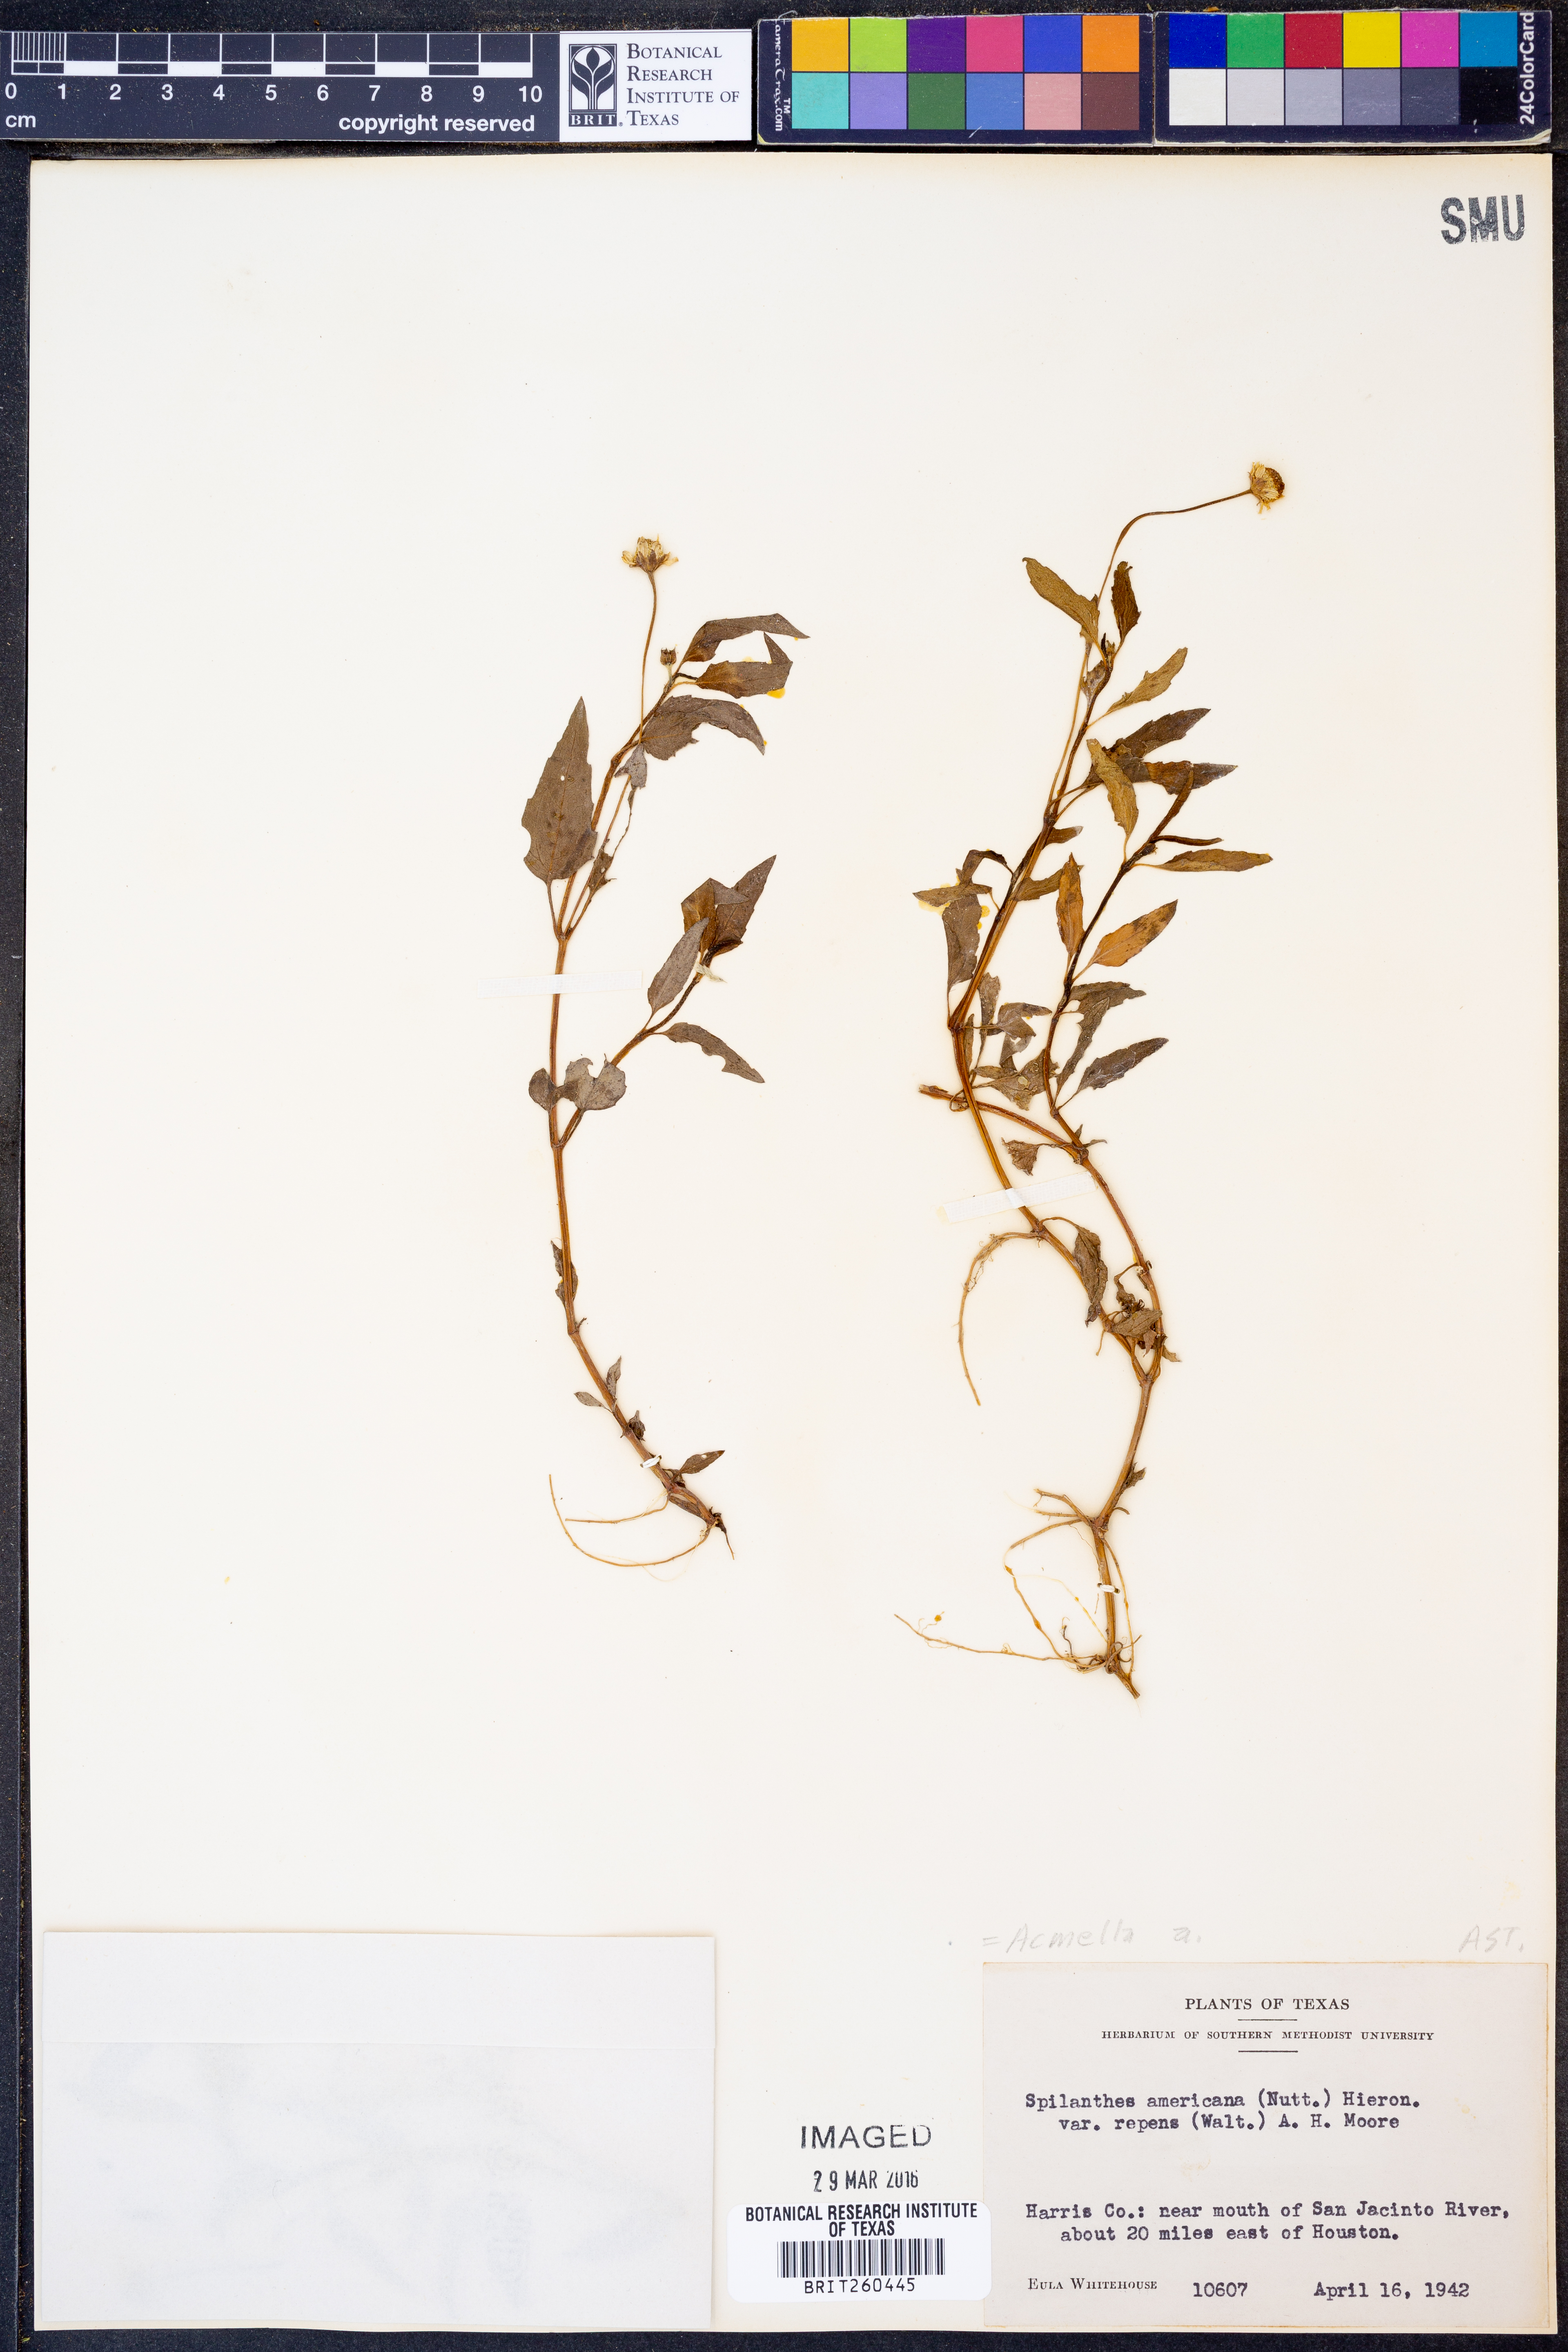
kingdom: Plantae
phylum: Tracheophyta
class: Magnoliopsida
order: Asterales
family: Asteraceae
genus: Acmella
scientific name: Acmella
